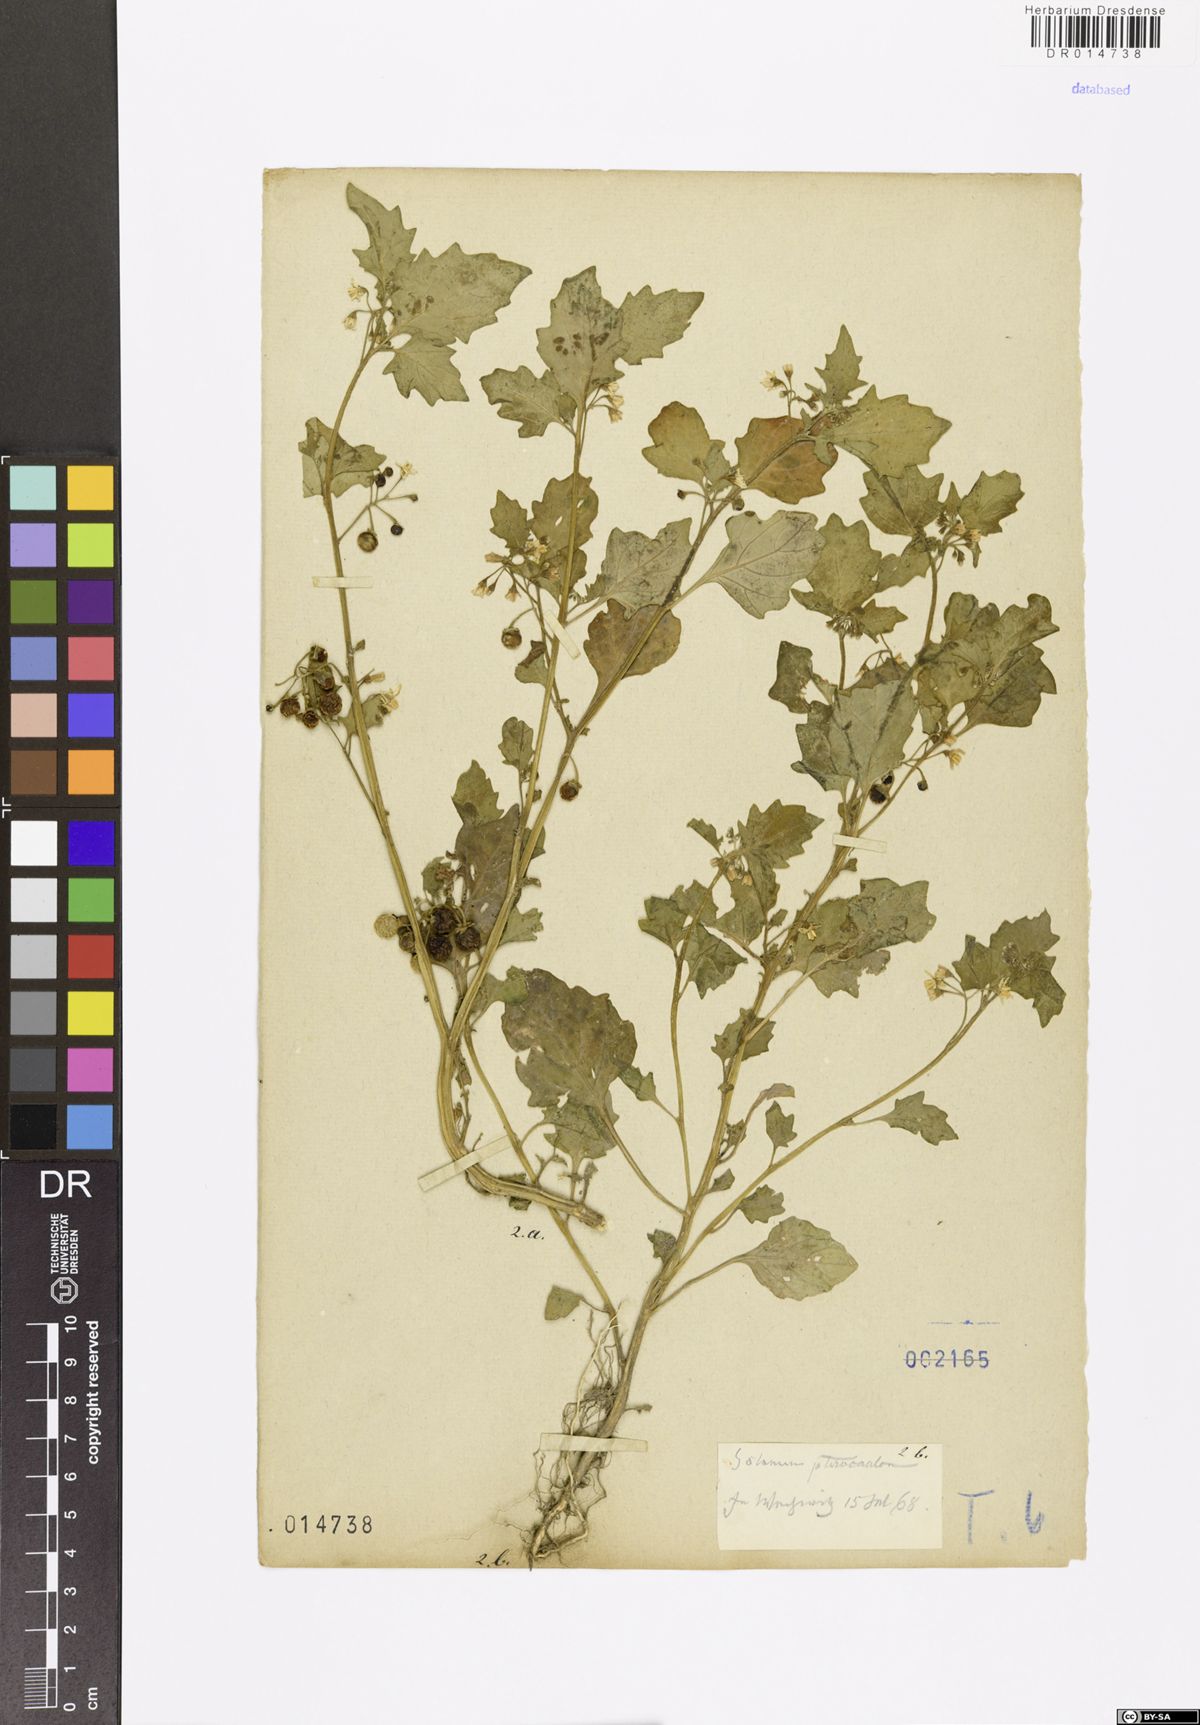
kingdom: Plantae
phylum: Tracheophyta
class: Magnoliopsida
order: Solanales
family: Solanaceae
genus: Solanum
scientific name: Solanum nigrum
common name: Black nightshade
